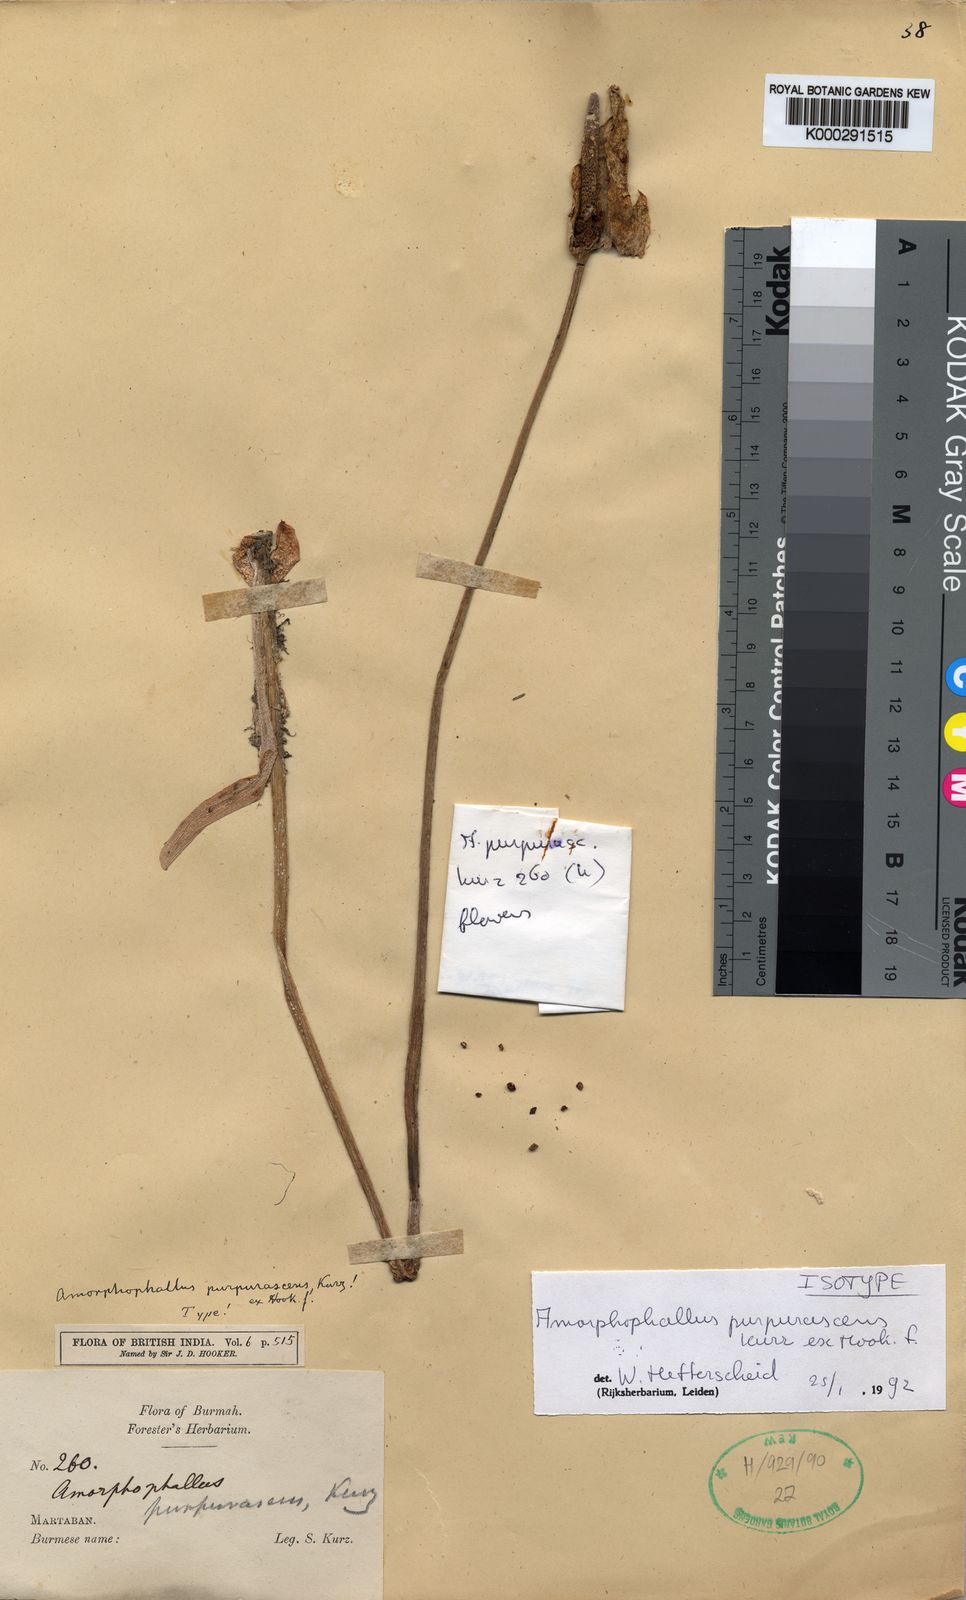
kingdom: Plantae
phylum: Tracheophyta
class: Liliopsida
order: Alismatales
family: Araceae
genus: Amorphophallus
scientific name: Amorphophallus purpurascens
